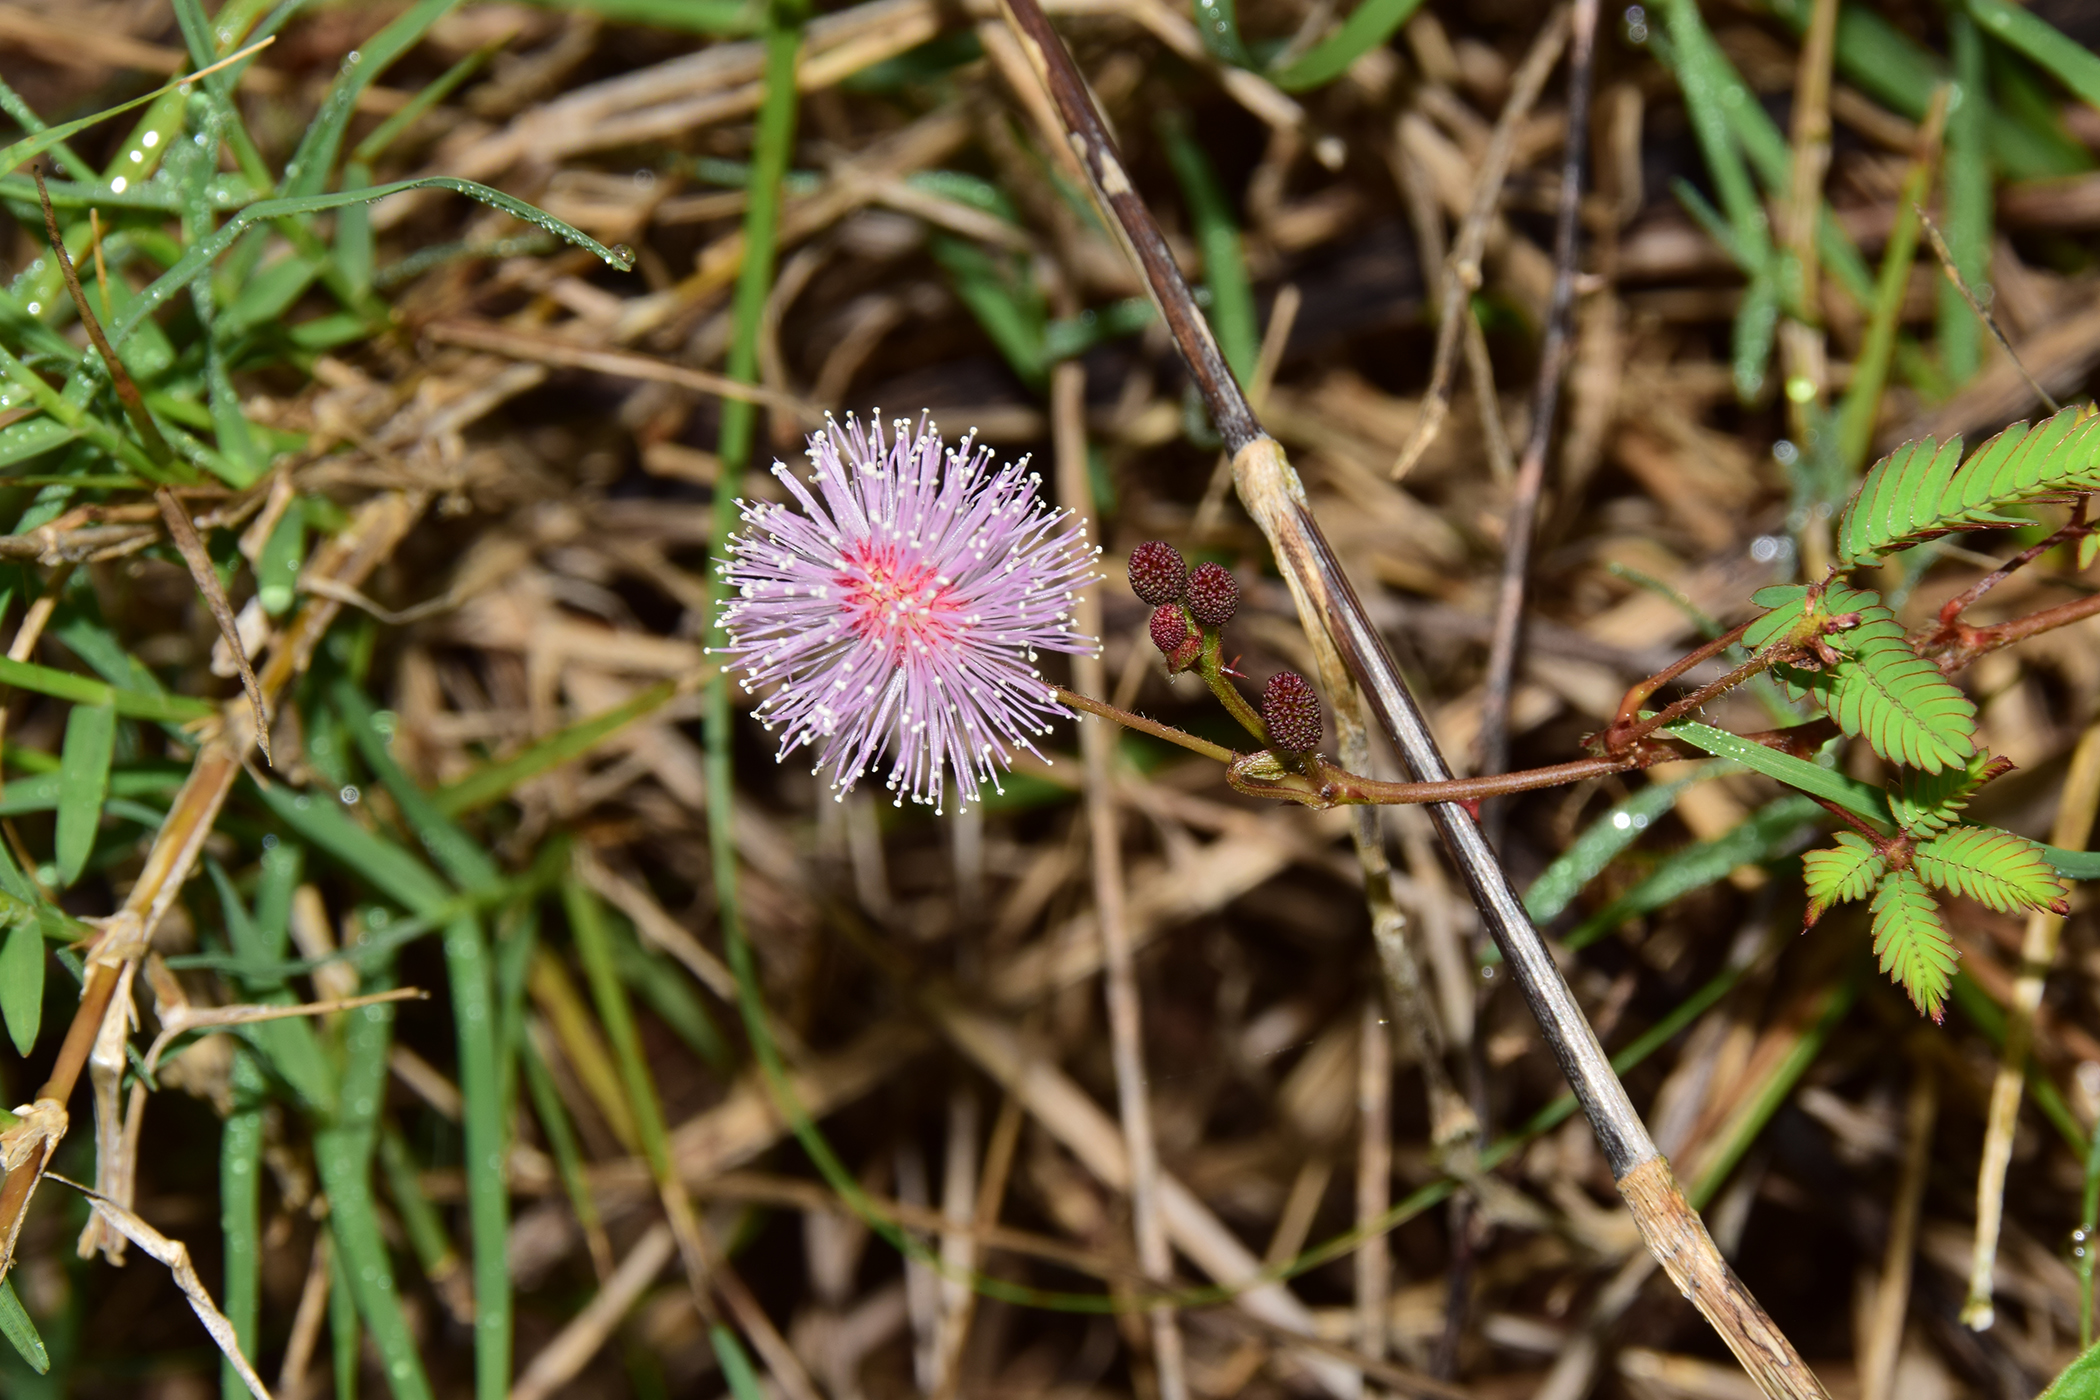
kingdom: Plantae
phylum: Tracheophyta
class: Magnoliopsida
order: Fabales
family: Fabaceae
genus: Mimosa
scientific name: Mimosa pudica
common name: Sensitive plant
